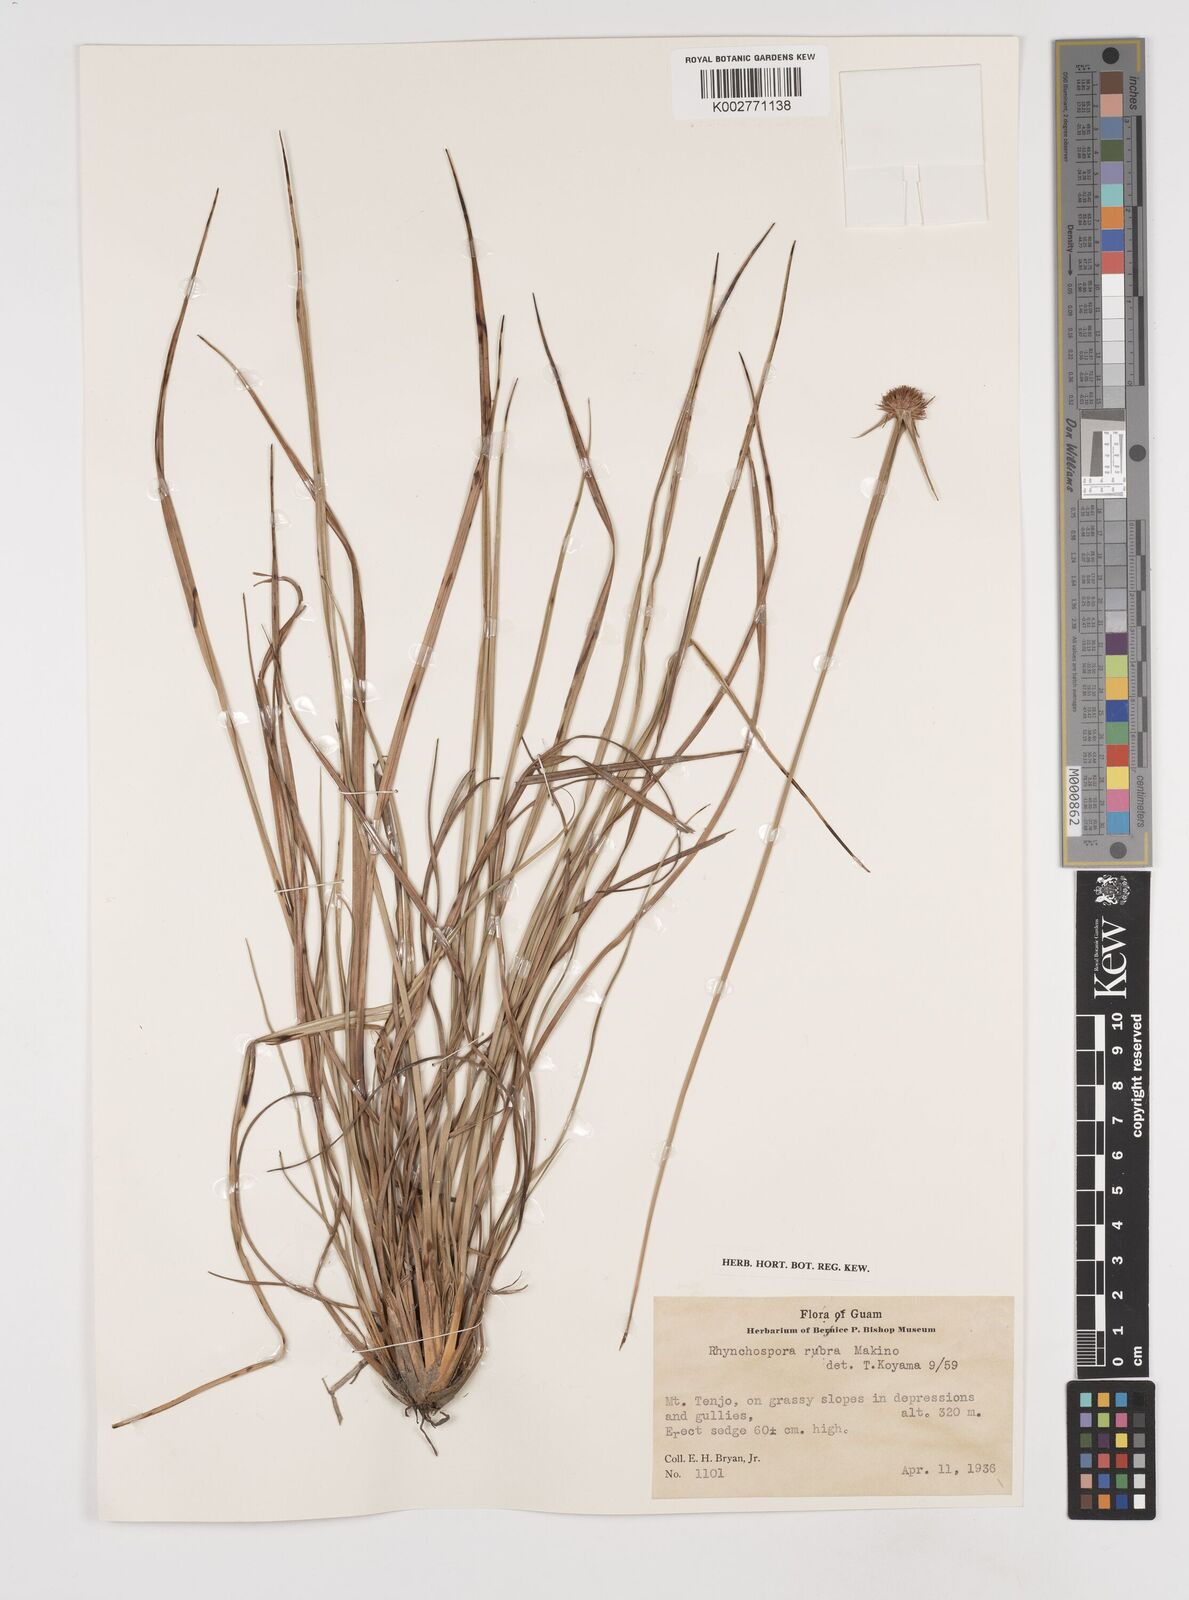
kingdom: Plantae
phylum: Tracheophyta
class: Liliopsida
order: Poales
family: Cyperaceae
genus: Rhynchospora
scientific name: Rhynchospora rubra
